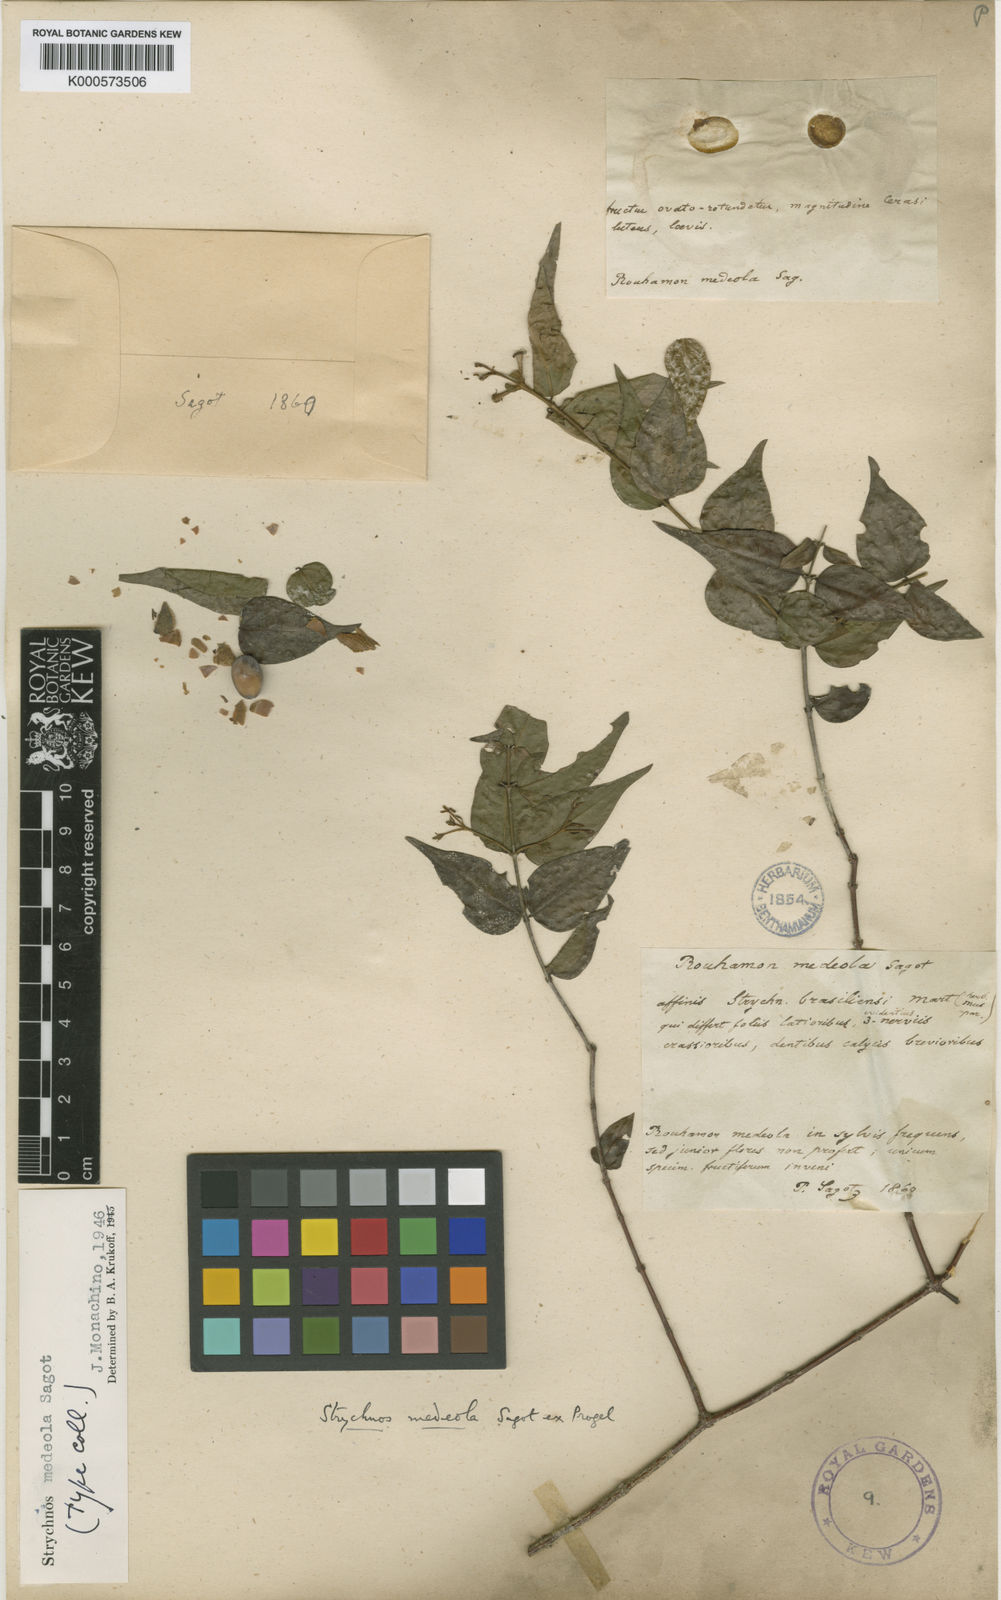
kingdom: Plantae
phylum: Tracheophyta
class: Magnoliopsida
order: Gentianales
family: Loganiaceae
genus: Strychnos
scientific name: Strychnos medeola
